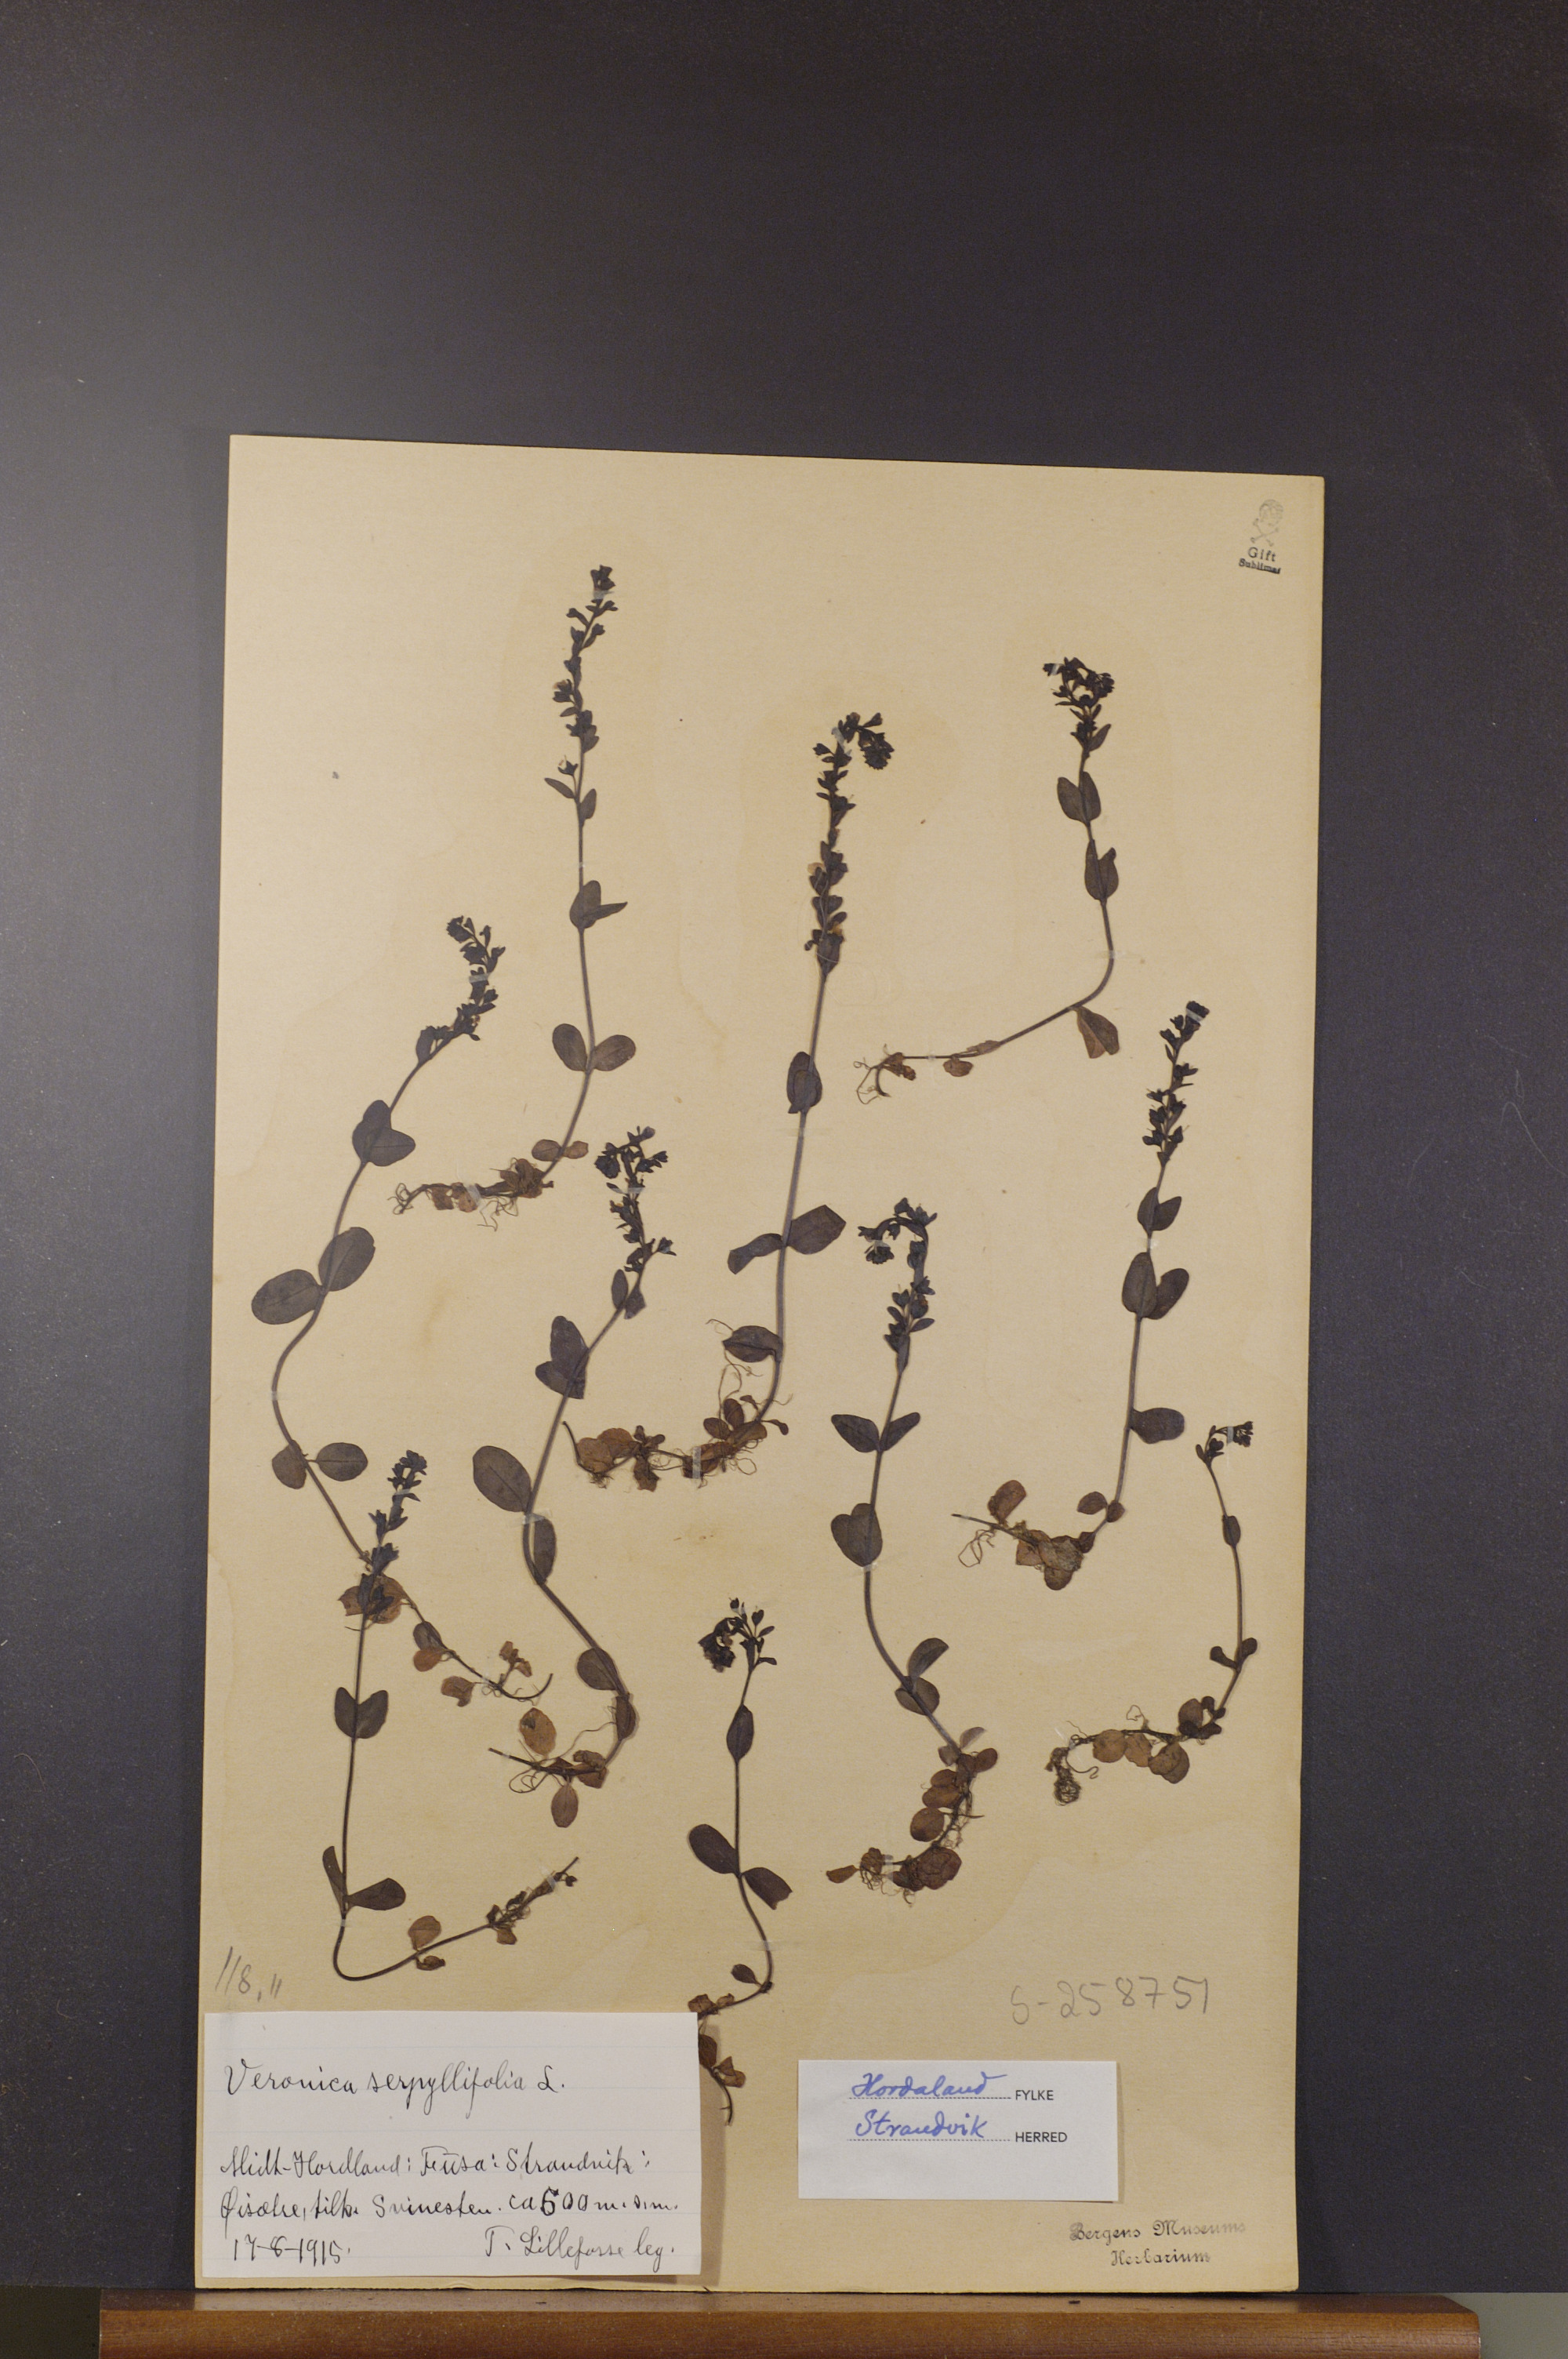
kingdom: Plantae
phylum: Tracheophyta
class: Magnoliopsida
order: Lamiales
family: Plantaginaceae
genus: Veronica
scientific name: Veronica serpyllifolia
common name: Thyme-leaved speedwell
